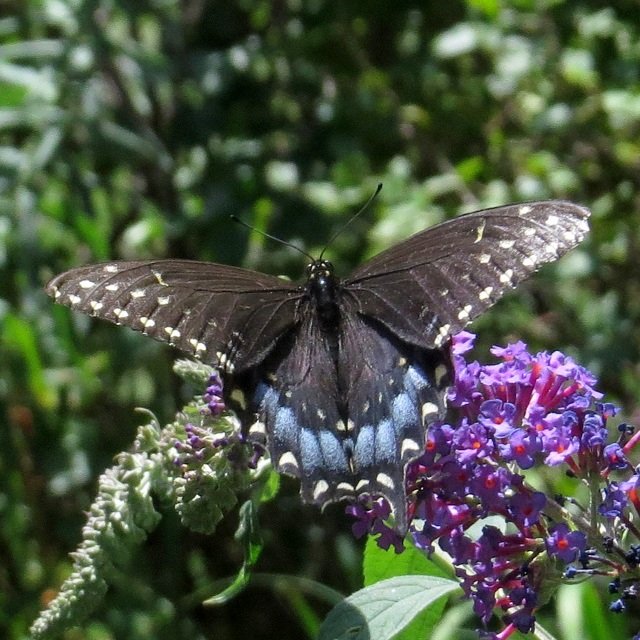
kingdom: Animalia
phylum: Arthropoda
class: Insecta
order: Lepidoptera
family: Papilionidae
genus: Papilio
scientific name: Papilio polyxenes
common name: Black Swallowtail
